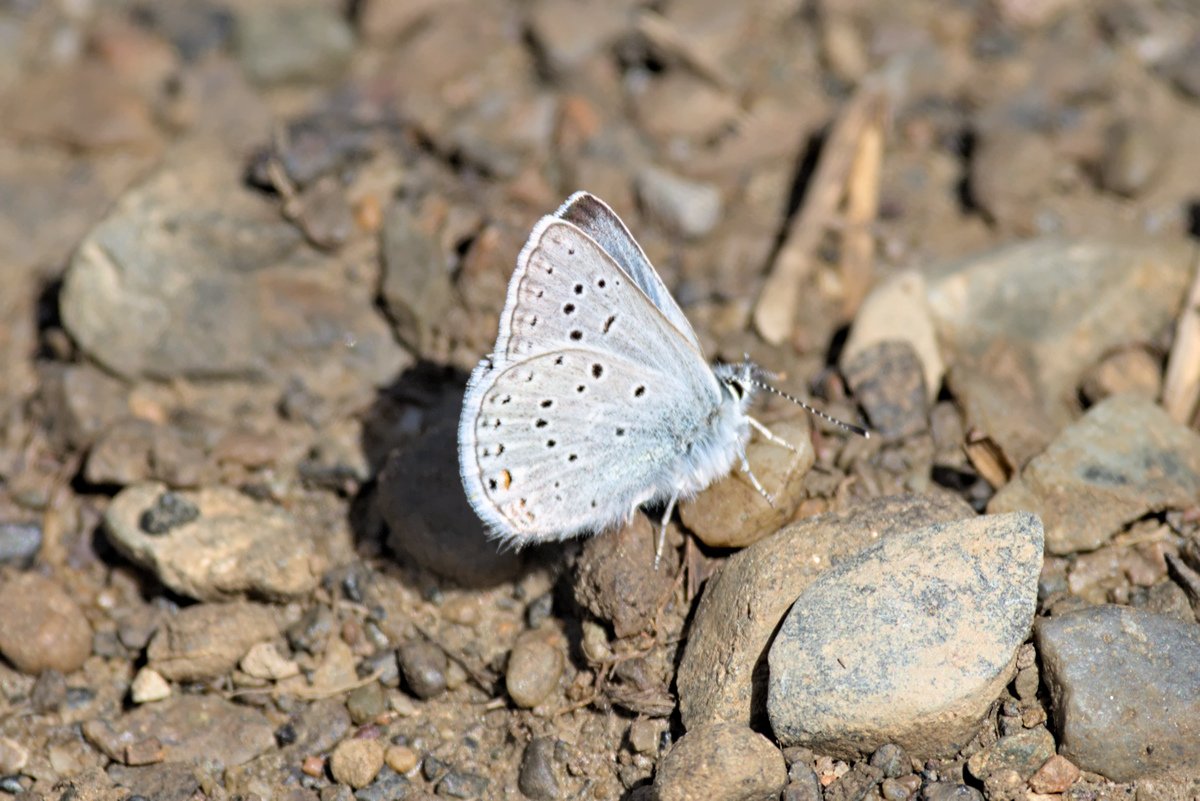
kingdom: Animalia
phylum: Arthropoda
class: Insecta
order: Lepidoptera
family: Lycaenidae
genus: Plebejus
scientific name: Plebejus saepiolus
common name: Greenish Blue
